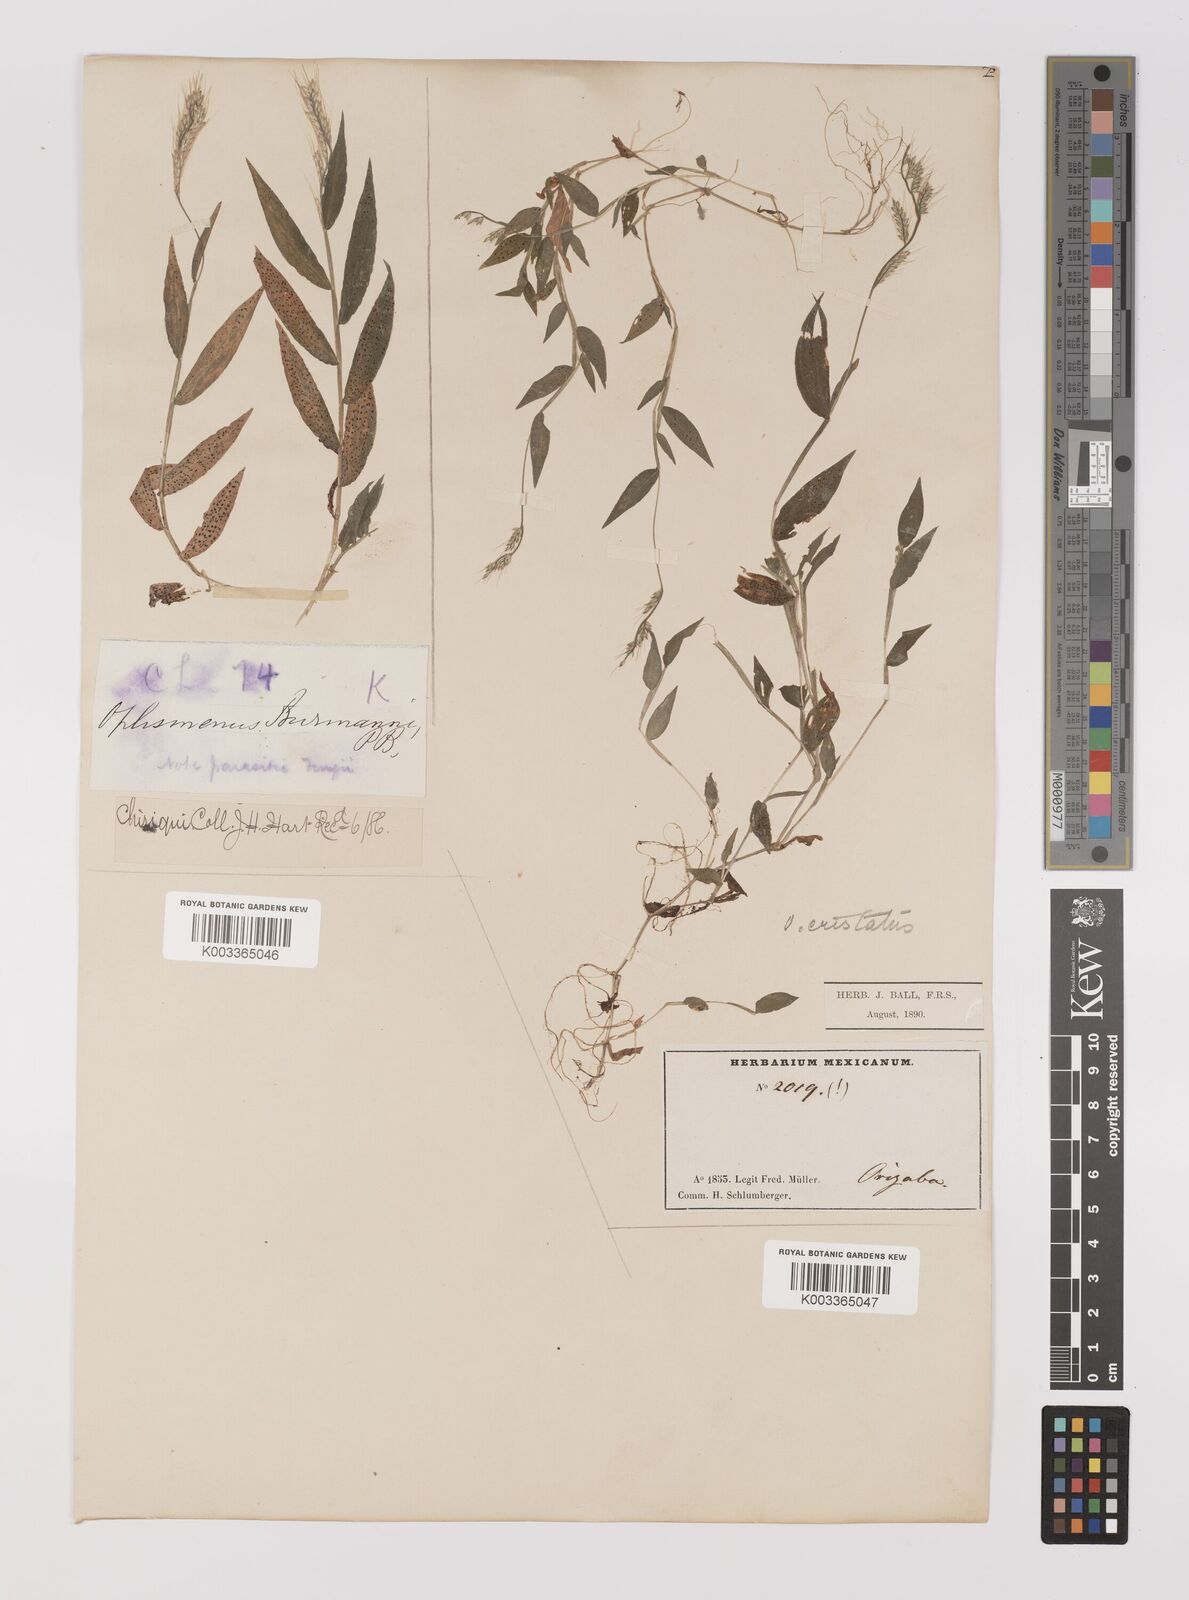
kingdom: Plantae
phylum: Tracheophyta
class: Liliopsida
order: Poales
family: Poaceae
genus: Oplismenus
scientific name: Oplismenus burmanni
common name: Burmann's basketgrass
